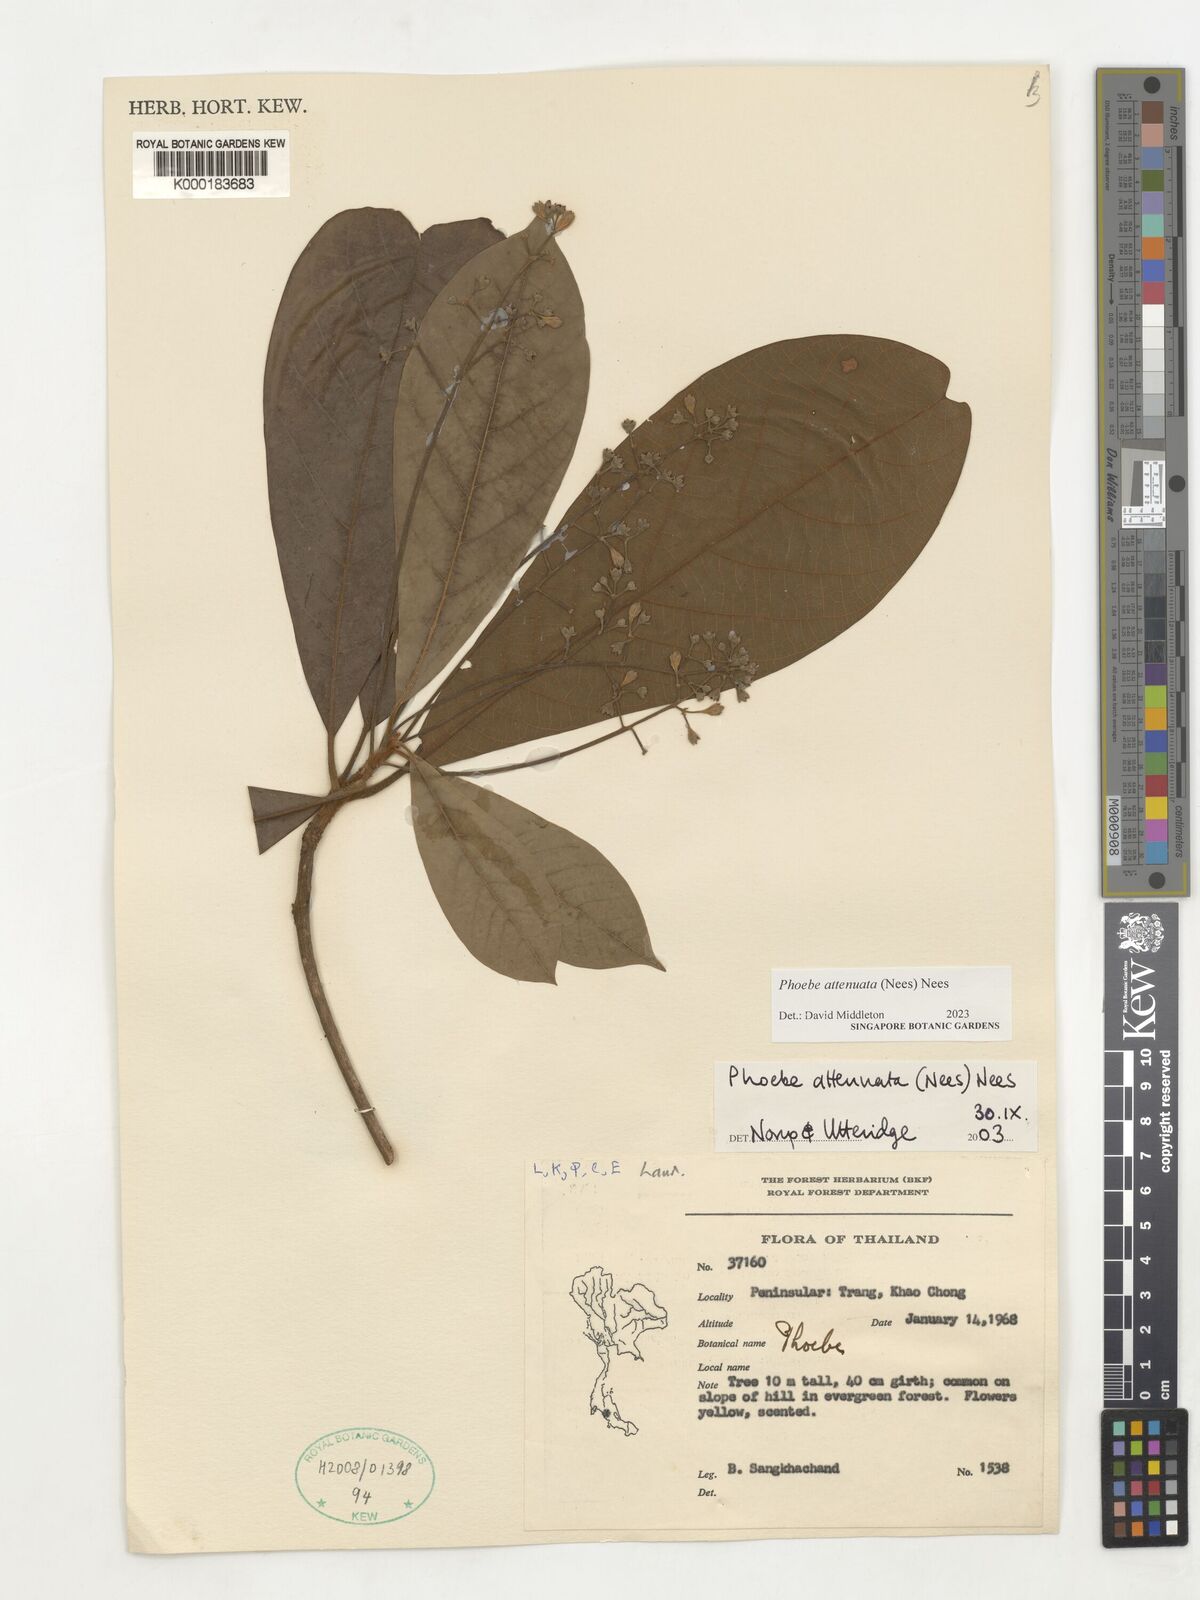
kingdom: Plantae
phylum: Tracheophyta
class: Magnoliopsida
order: Laurales
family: Lauraceae
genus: Phoebe
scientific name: Phoebe attenuata
